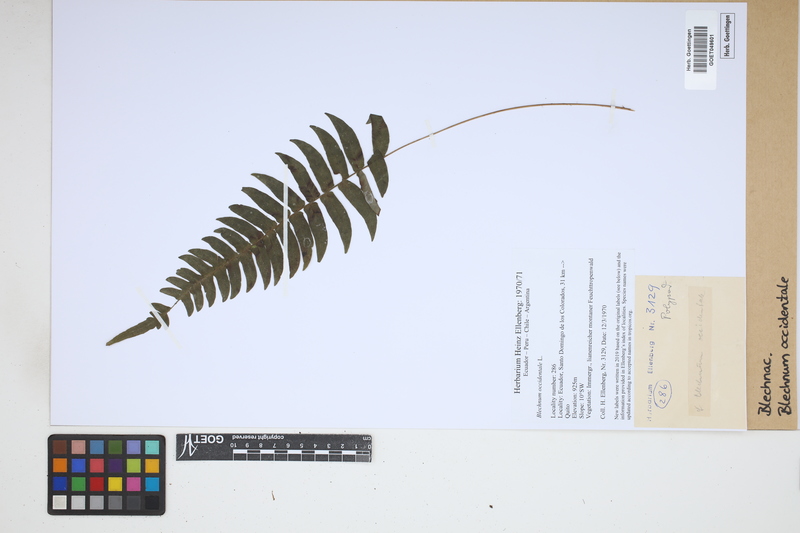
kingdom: Plantae
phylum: Tracheophyta
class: Polypodiopsida
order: Polypodiales
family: Blechnaceae
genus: Blechnum
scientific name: Blechnum occidentale
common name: Hammock fern
